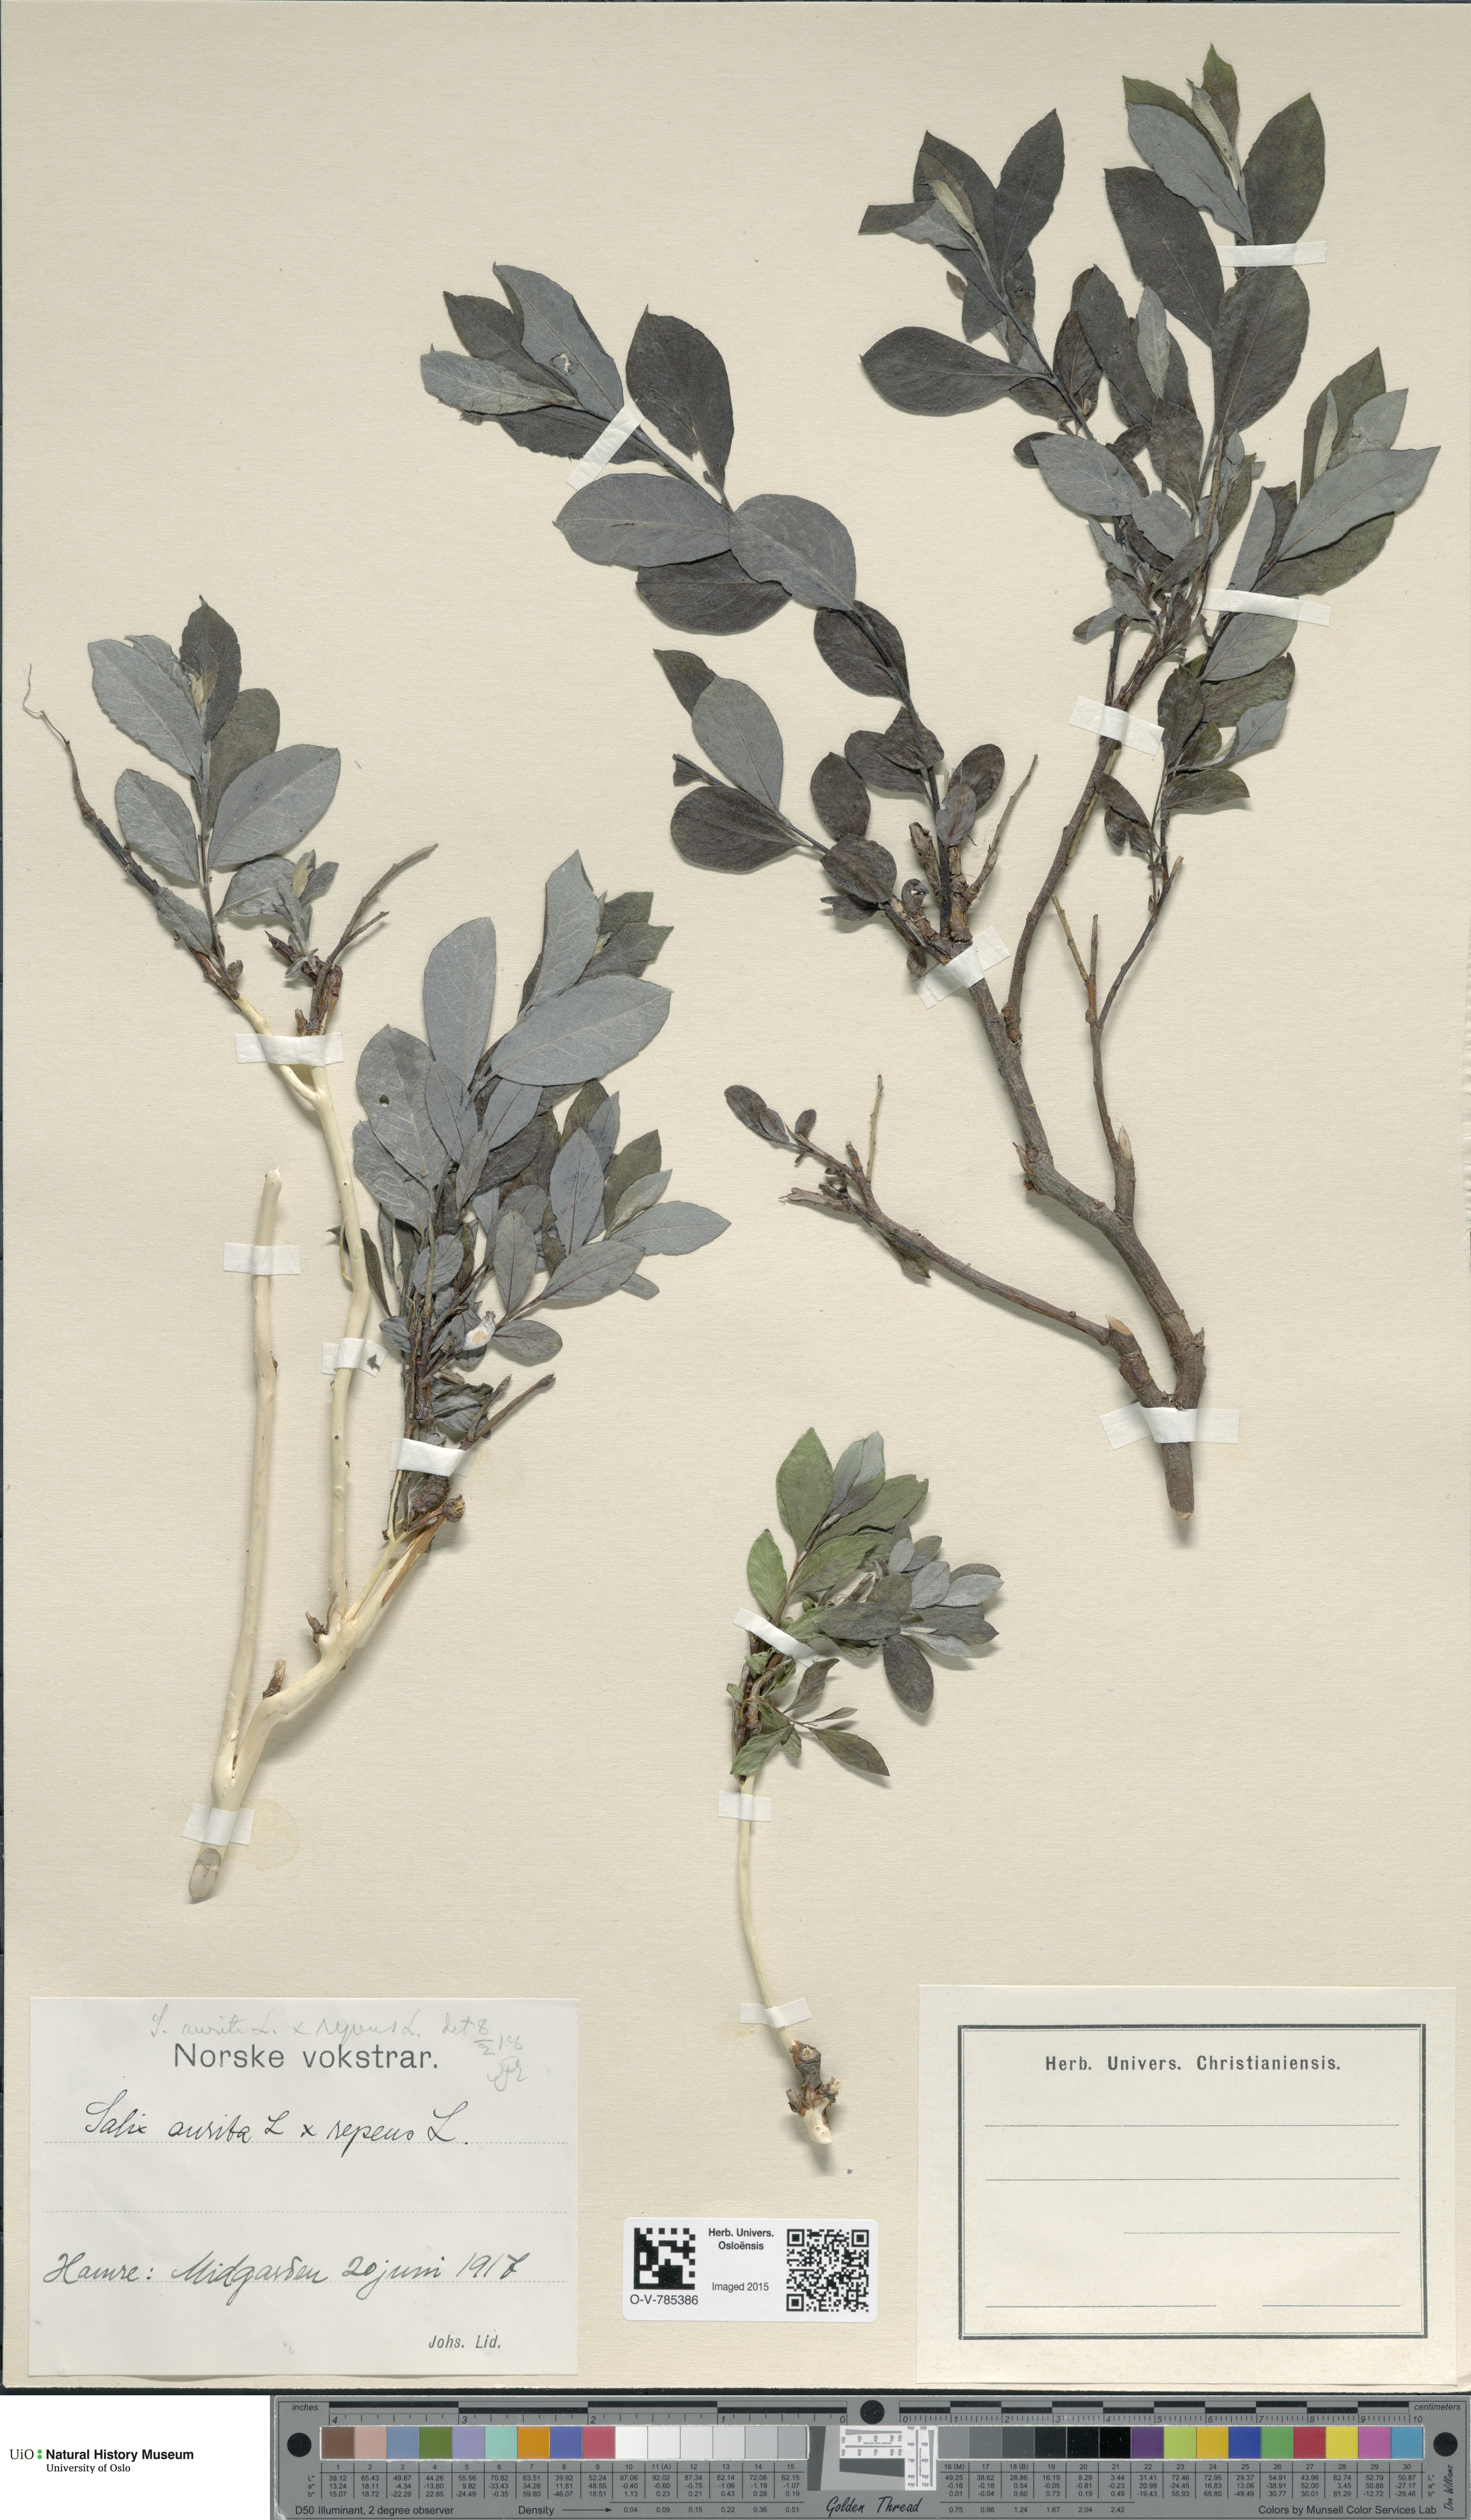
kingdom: Plantae
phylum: Tracheophyta
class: Magnoliopsida
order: Malpighiales
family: Salicaceae
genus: Salix
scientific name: Salix
